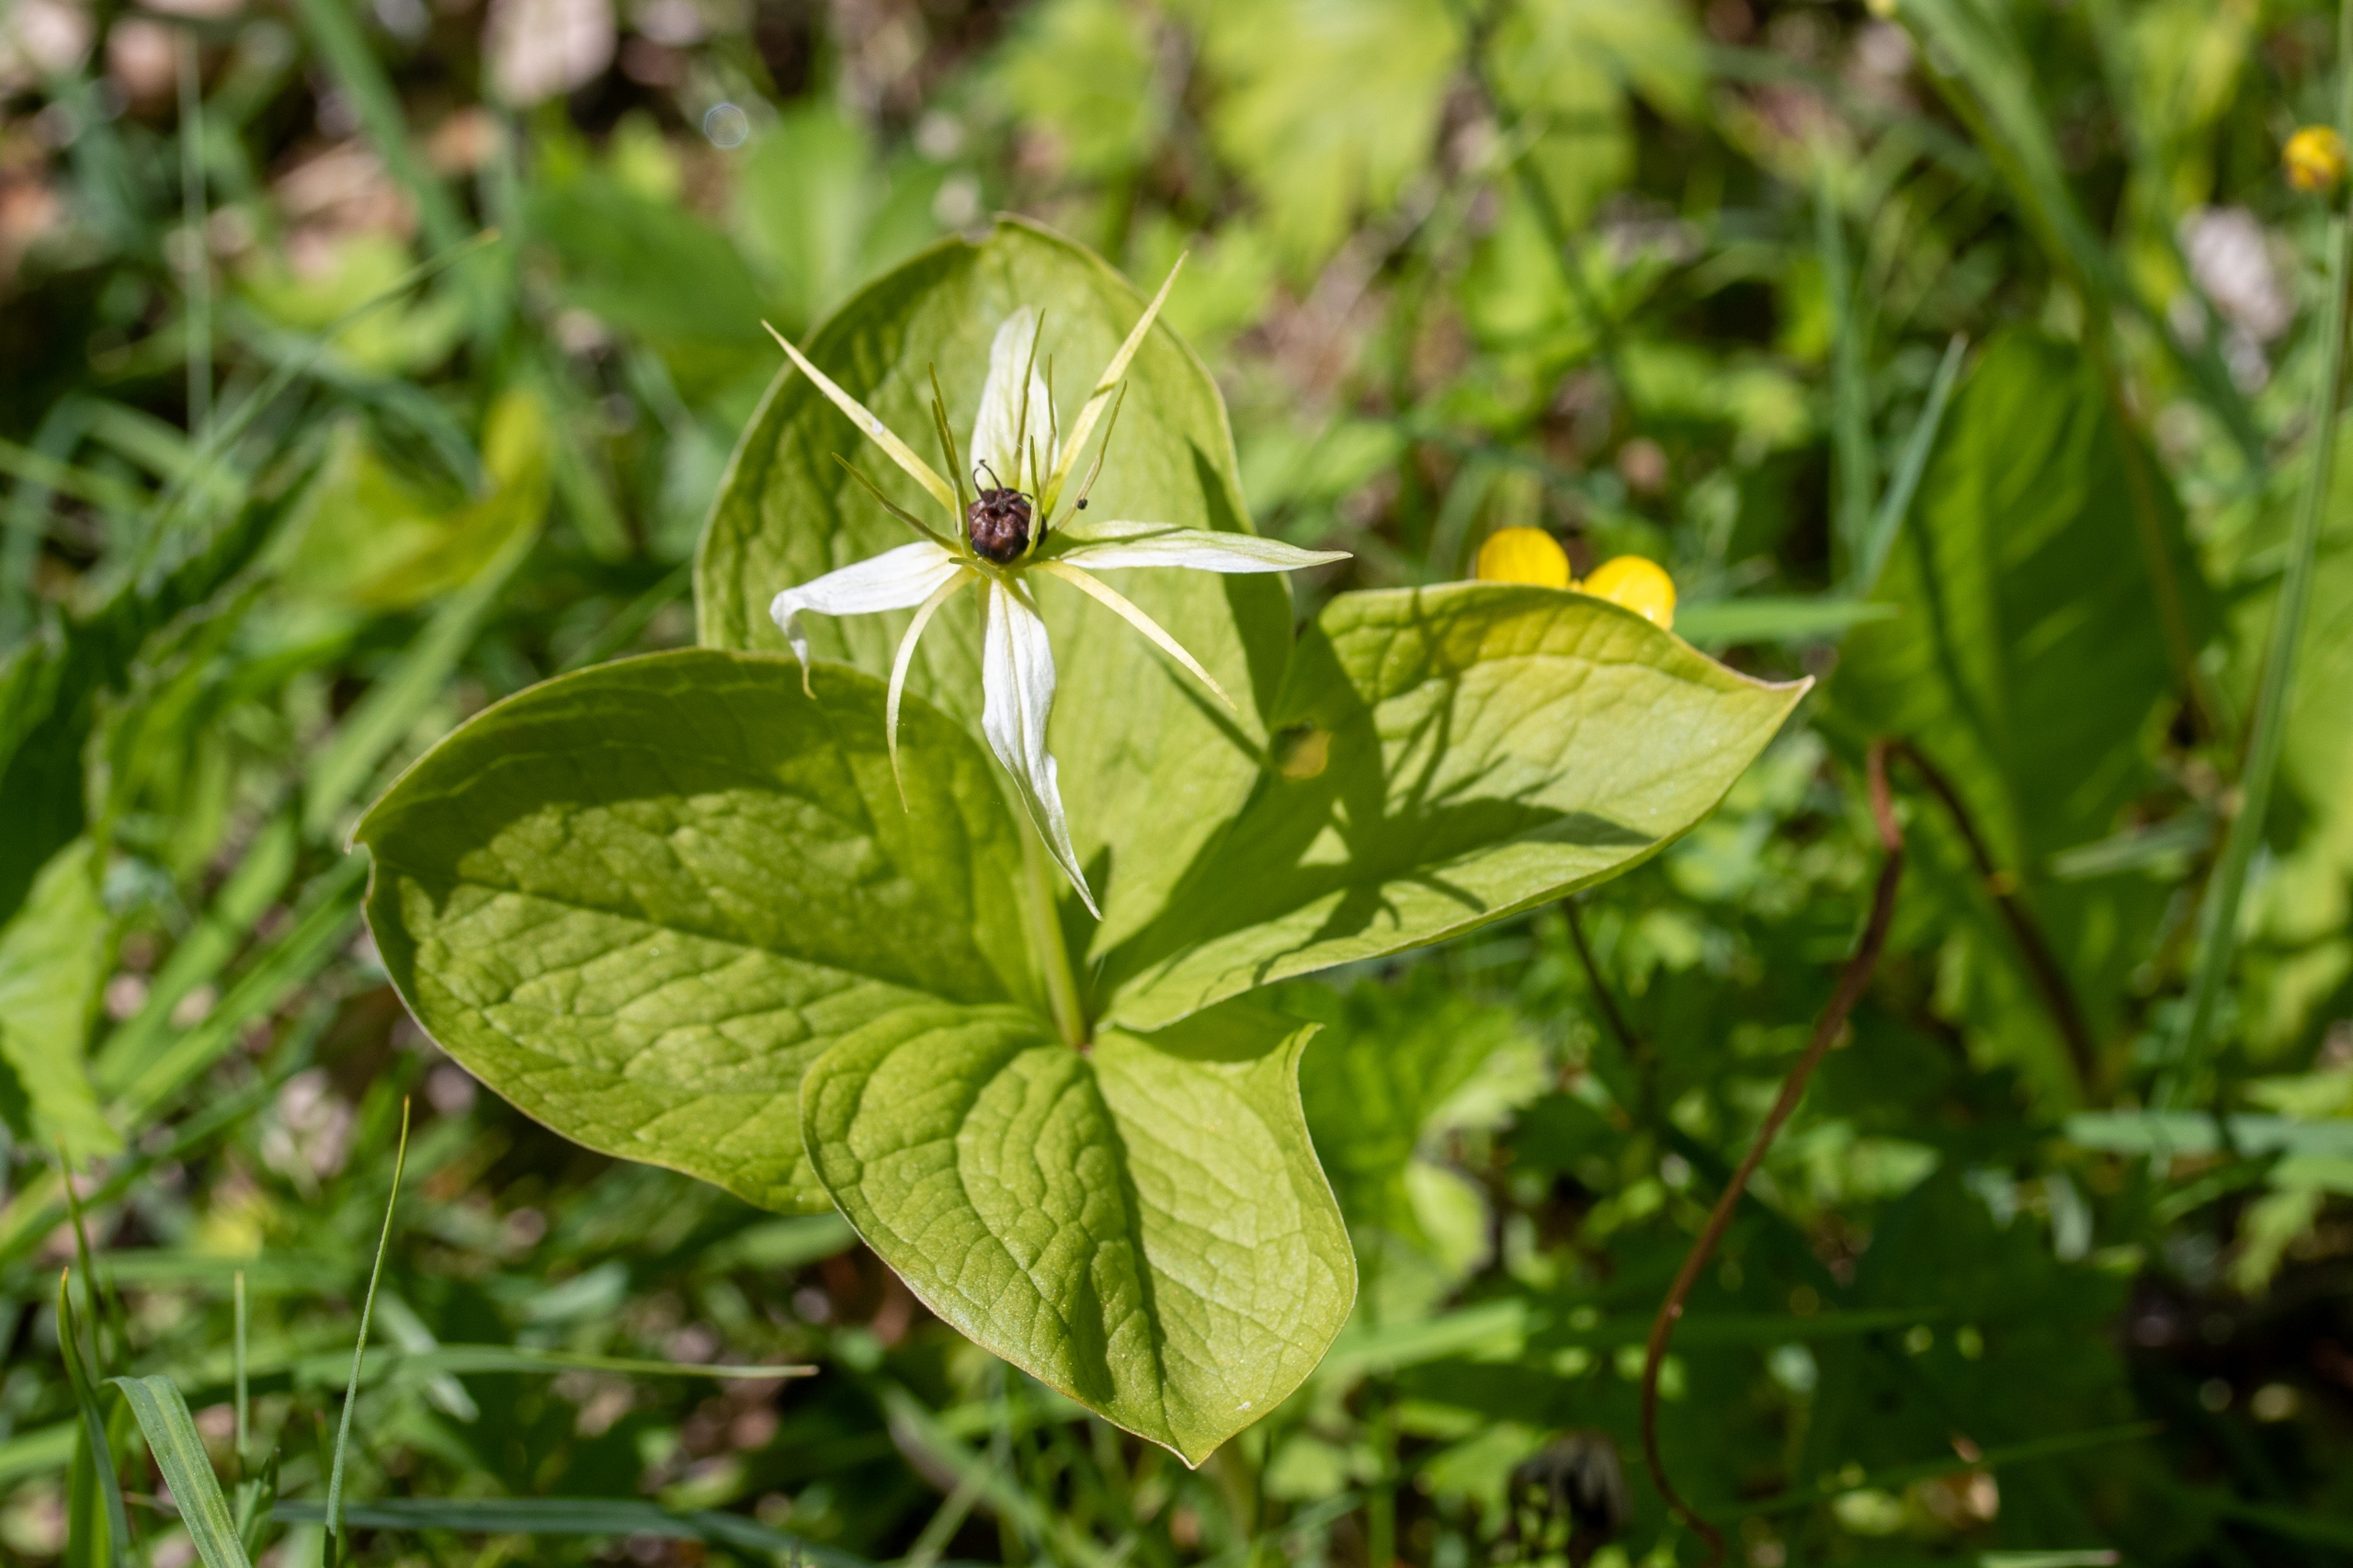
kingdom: Plantae
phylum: Tracheophyta
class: Liliopsida
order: Liliales
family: Melanthiaceae
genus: Paris
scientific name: Paris quadrifolia
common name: Firblad
